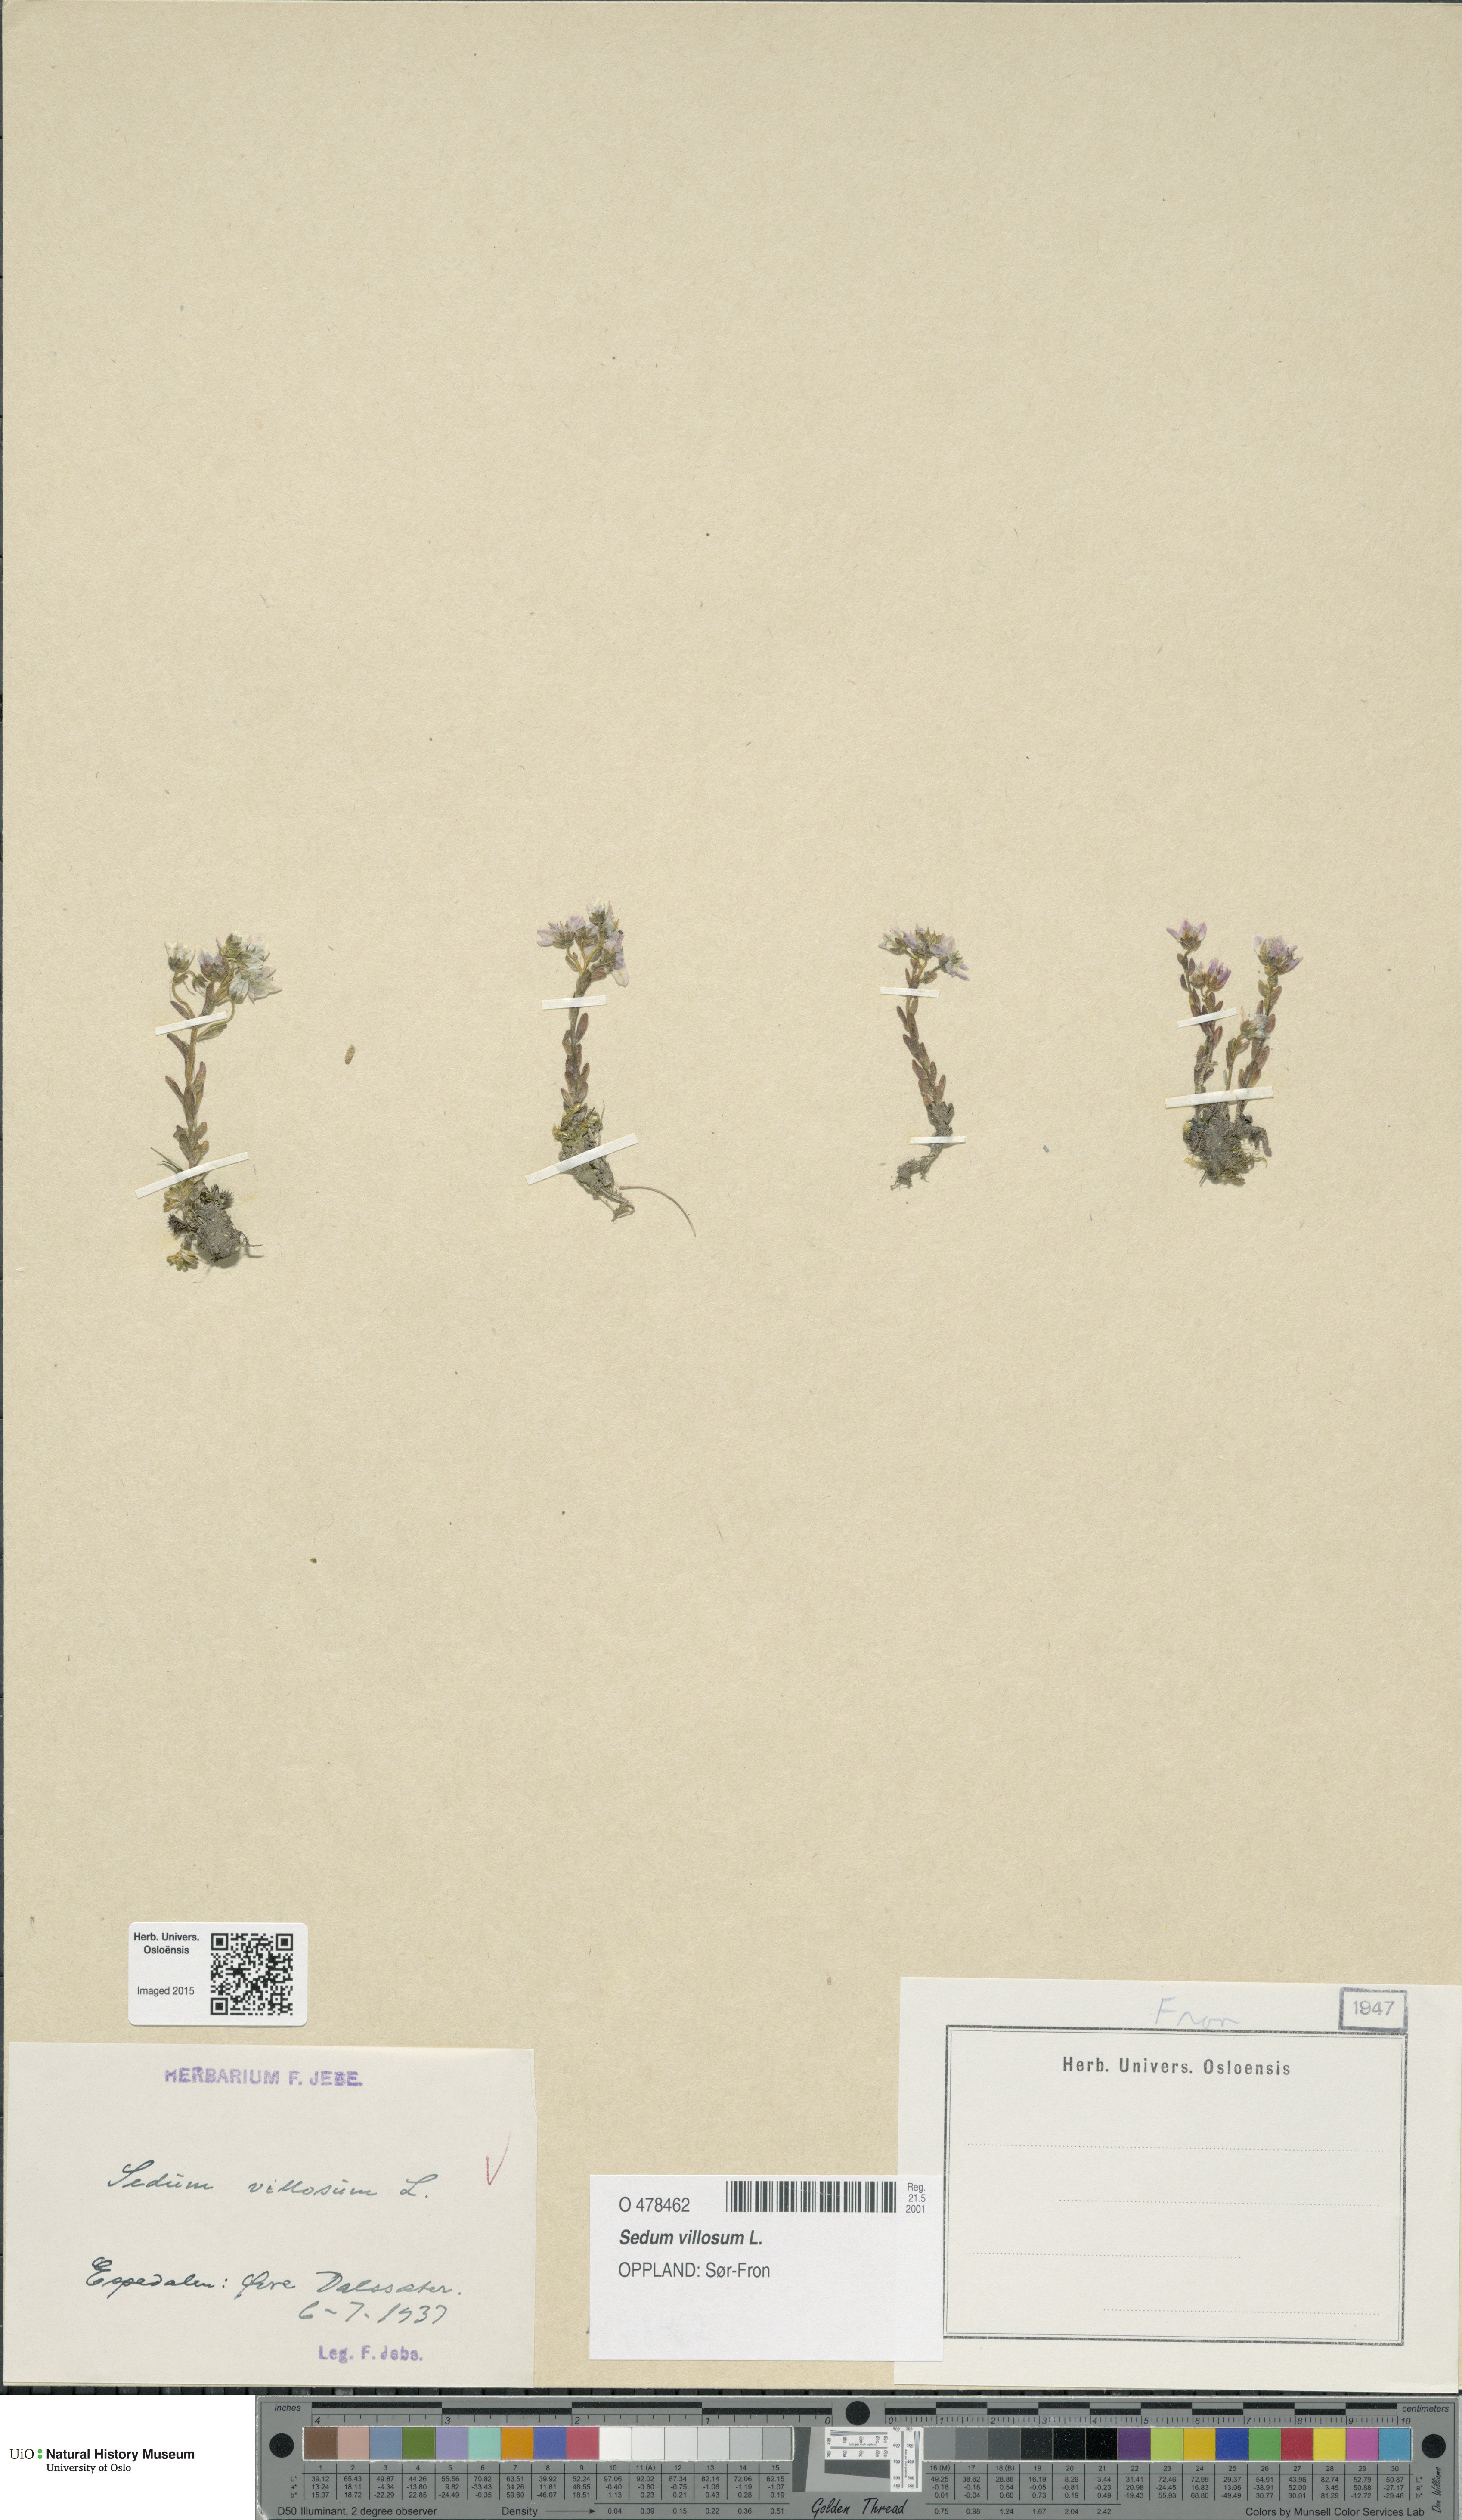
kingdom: Plantae
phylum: Tracheophyta
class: Magnoliopsida
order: Saxifragales
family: Crassulaceae
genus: Sedum
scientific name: Sedum villosum
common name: Hairy stonecrop
